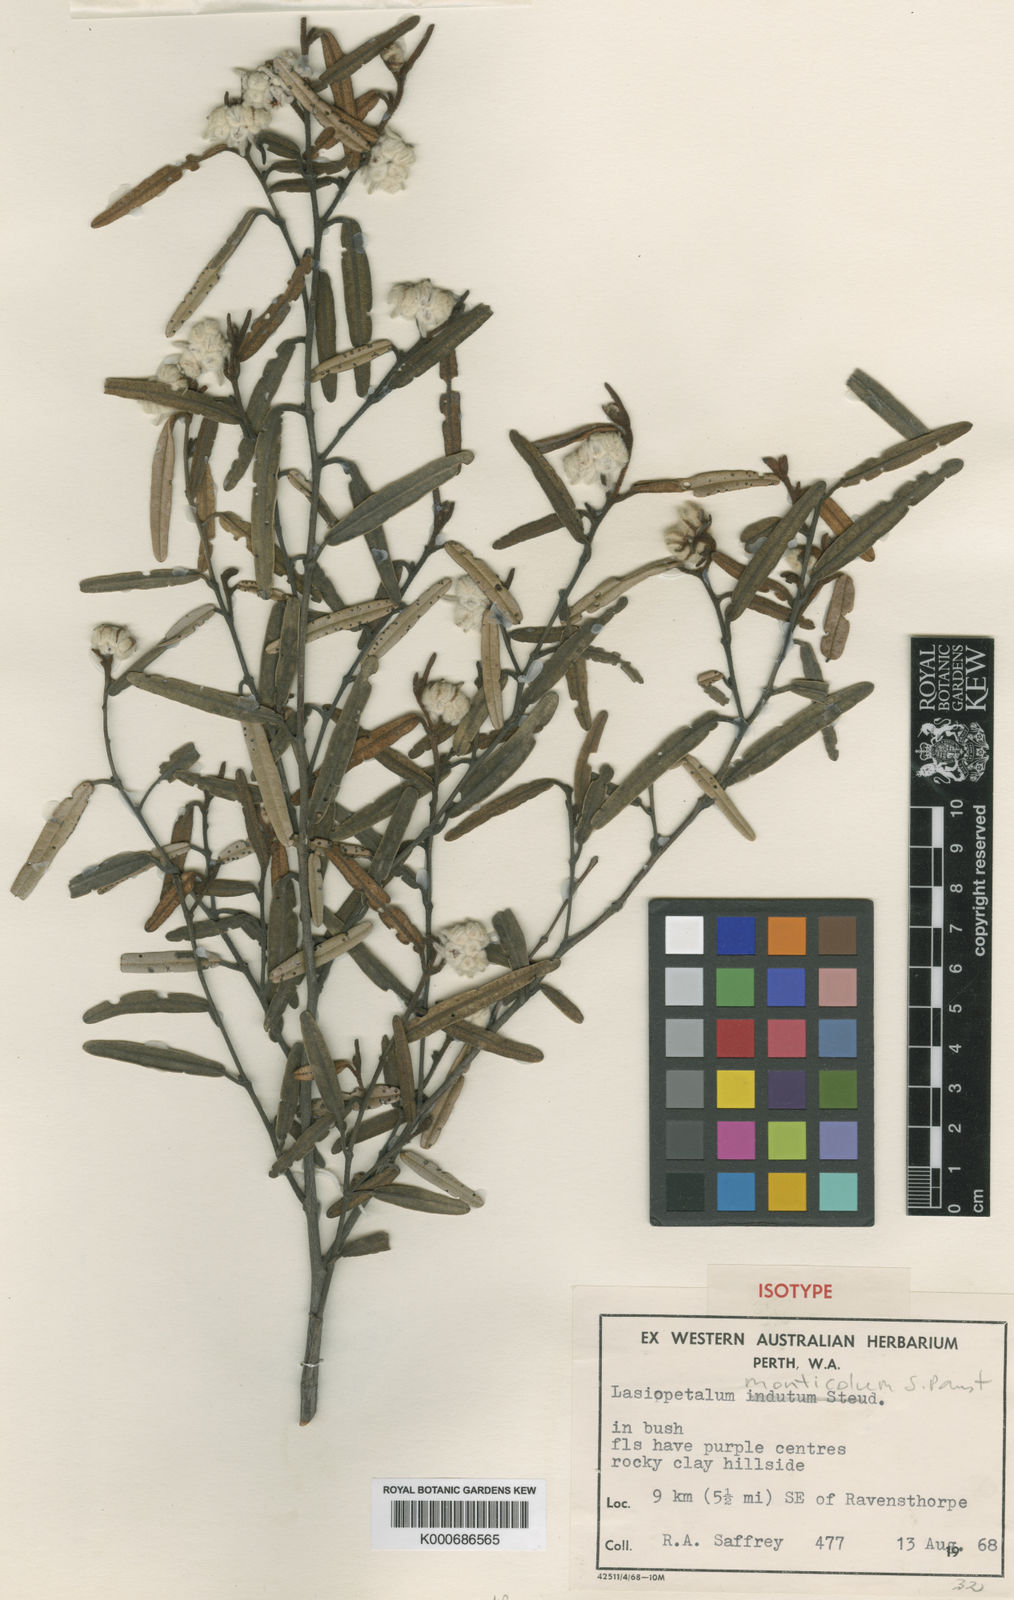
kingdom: Plantae
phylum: Tracheophyta
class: Magnoliopsida
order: Malvales
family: Malvaceae
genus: Lasiopetalum
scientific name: Lasiopetalum compactum
